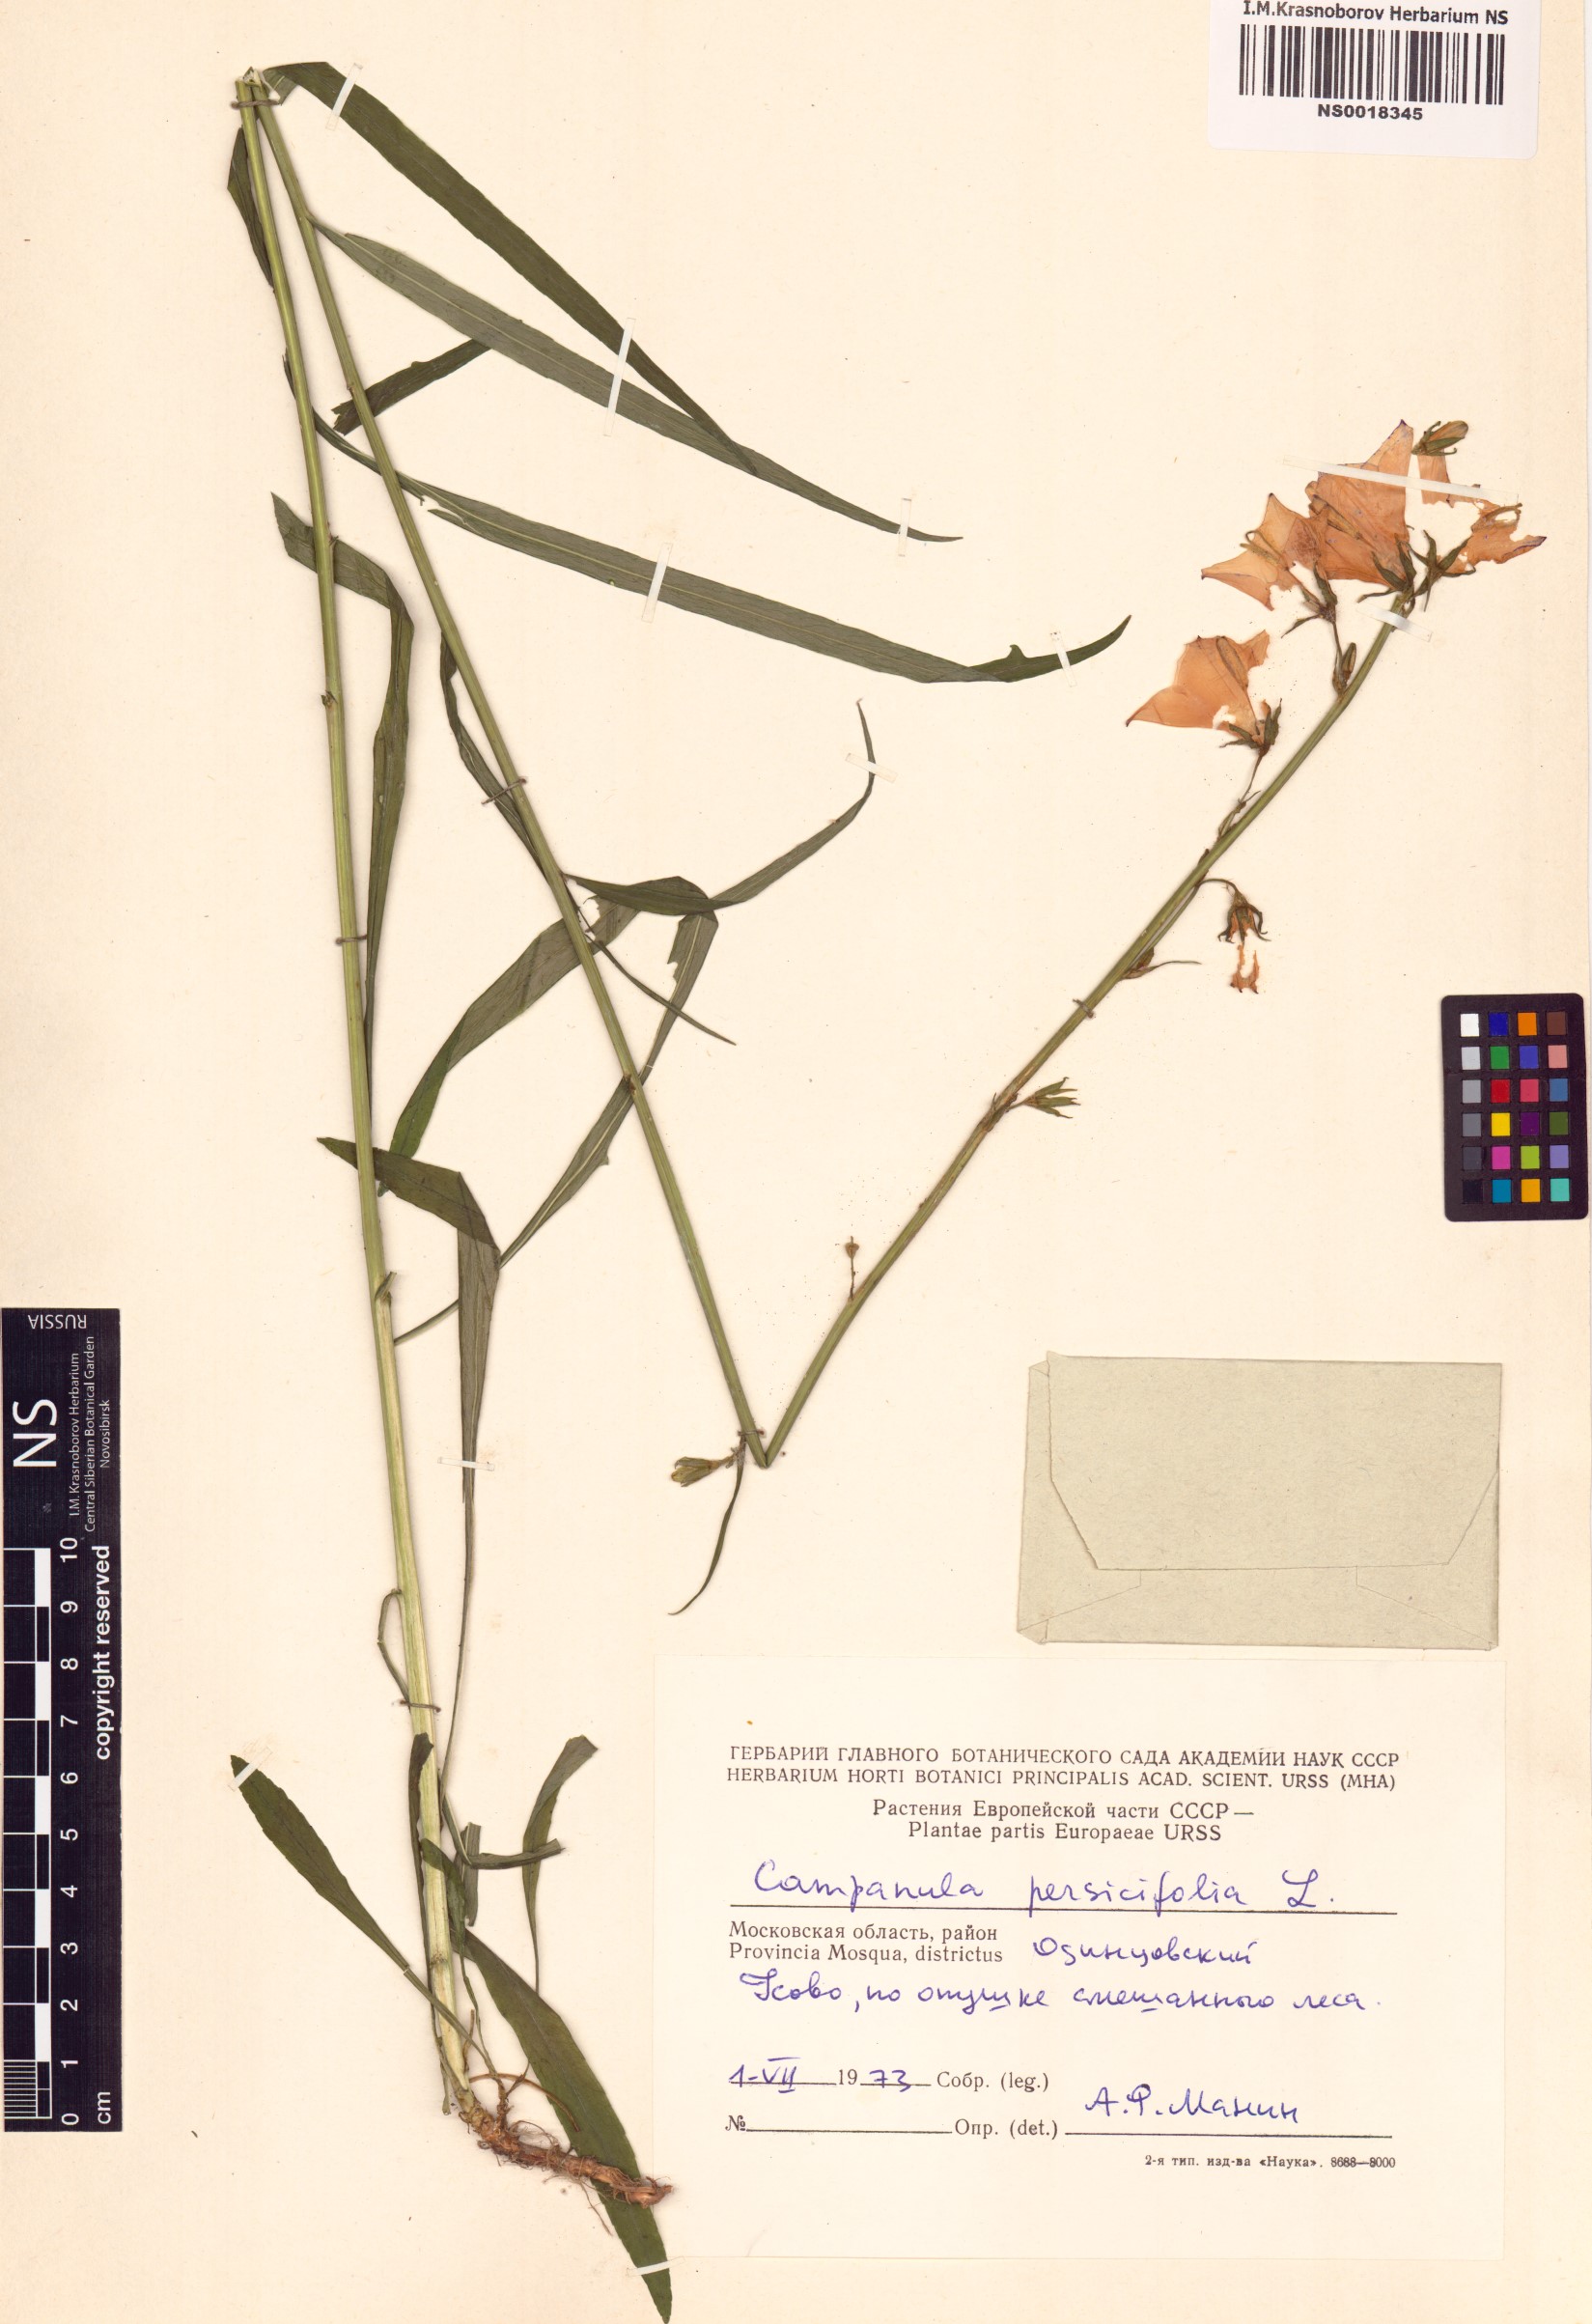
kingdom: Plantae
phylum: Tracheophyta
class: Magnoliopsida
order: Asterales
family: Campanulaceae
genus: Campanula
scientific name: Campanula persicifolia
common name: Peach-leaved bellflower
